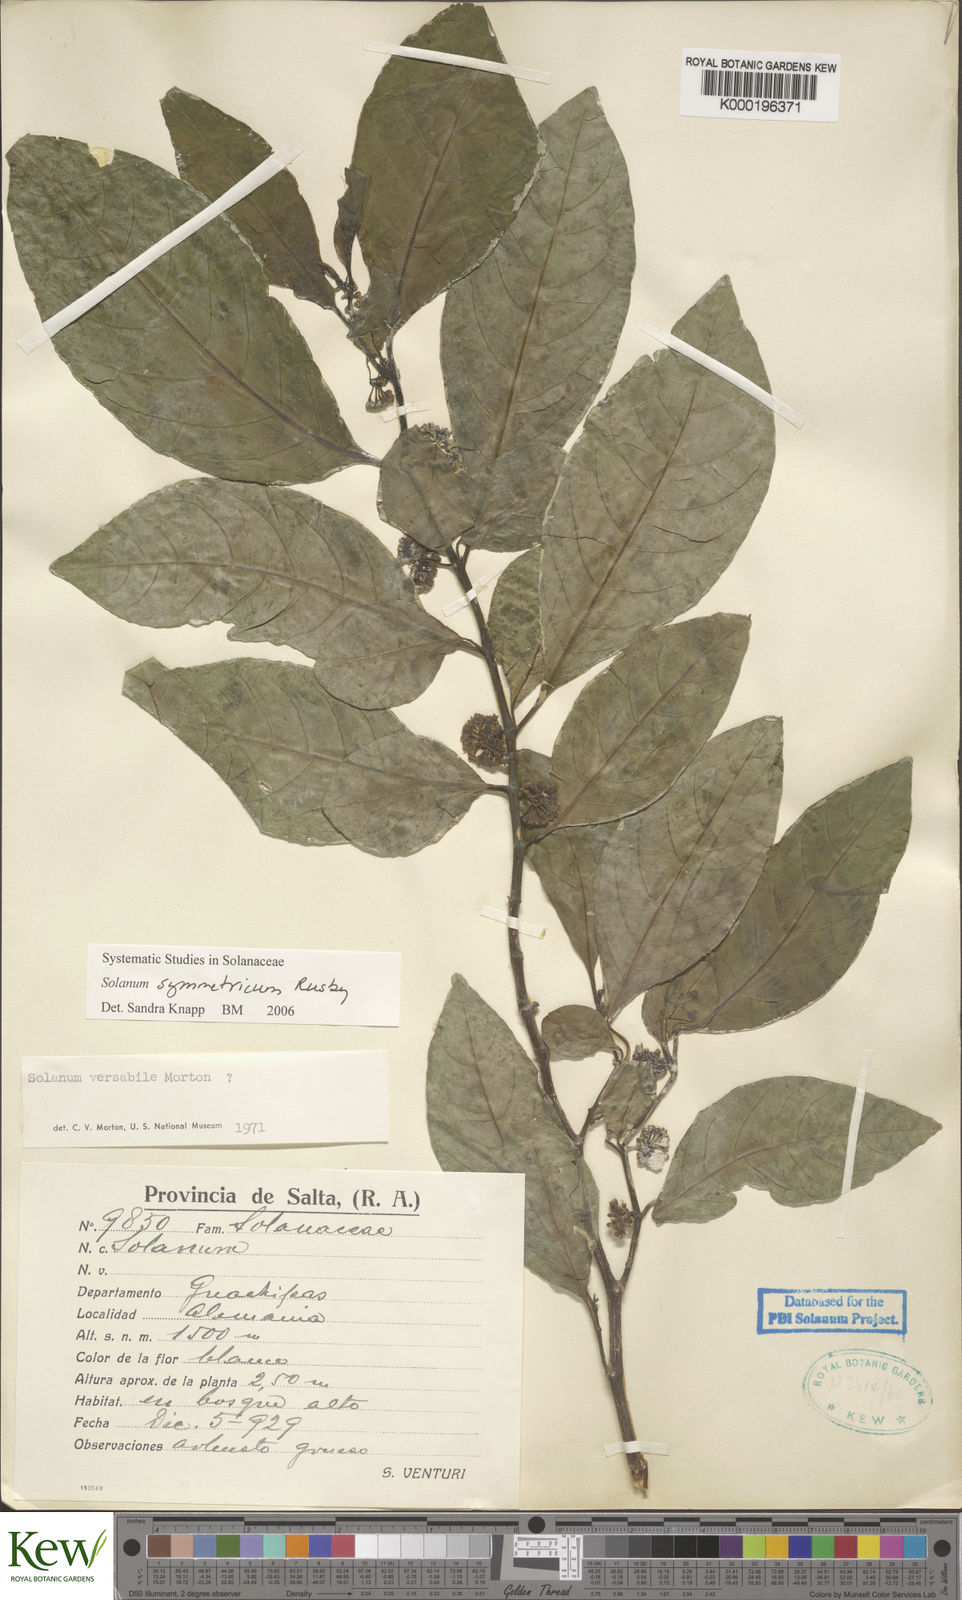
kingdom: Plantae
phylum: Tracheophyta
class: Magnoliopsida
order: Solanales
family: Solanaceae
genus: Solanum
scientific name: Solanum symmetricum
